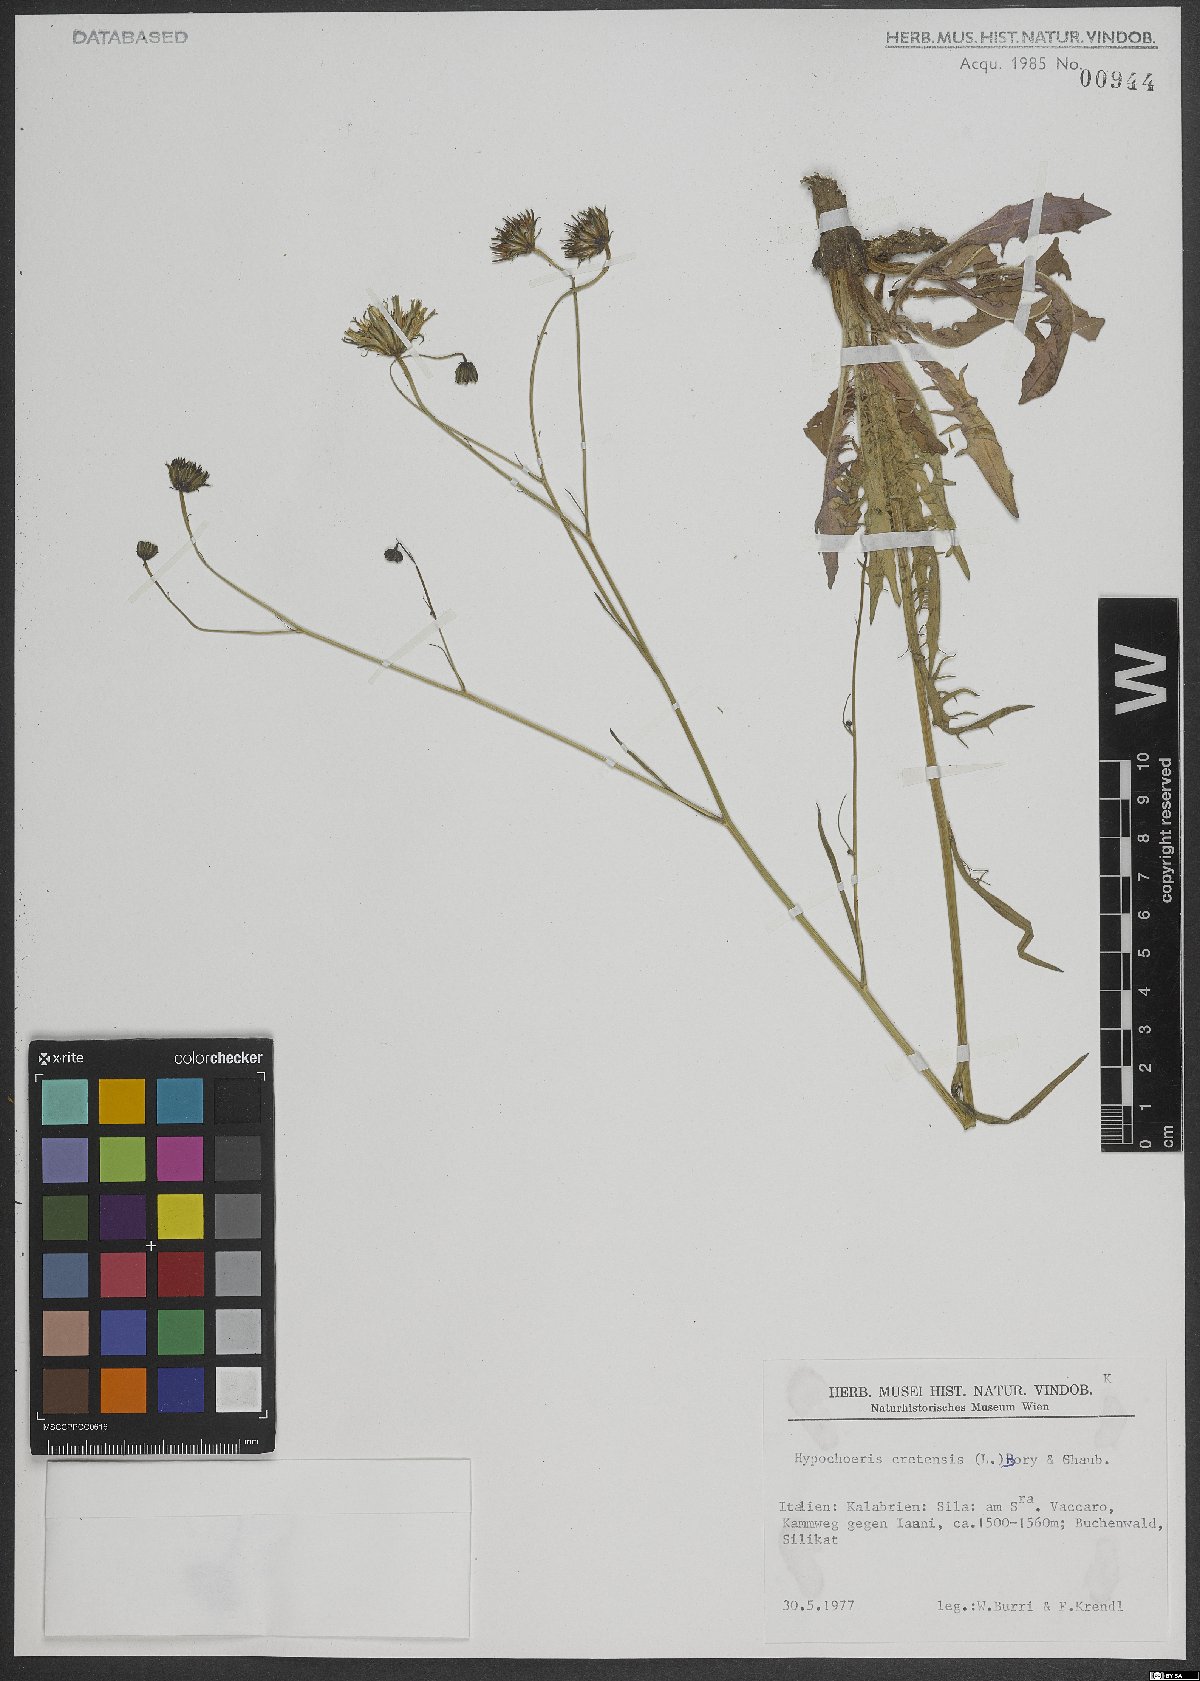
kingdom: Plantae
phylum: Tracheophyta
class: Magnoliopsida
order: Asterales
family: Asteraceae
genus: Hypochaeris
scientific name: Hypochaeris cretensis
